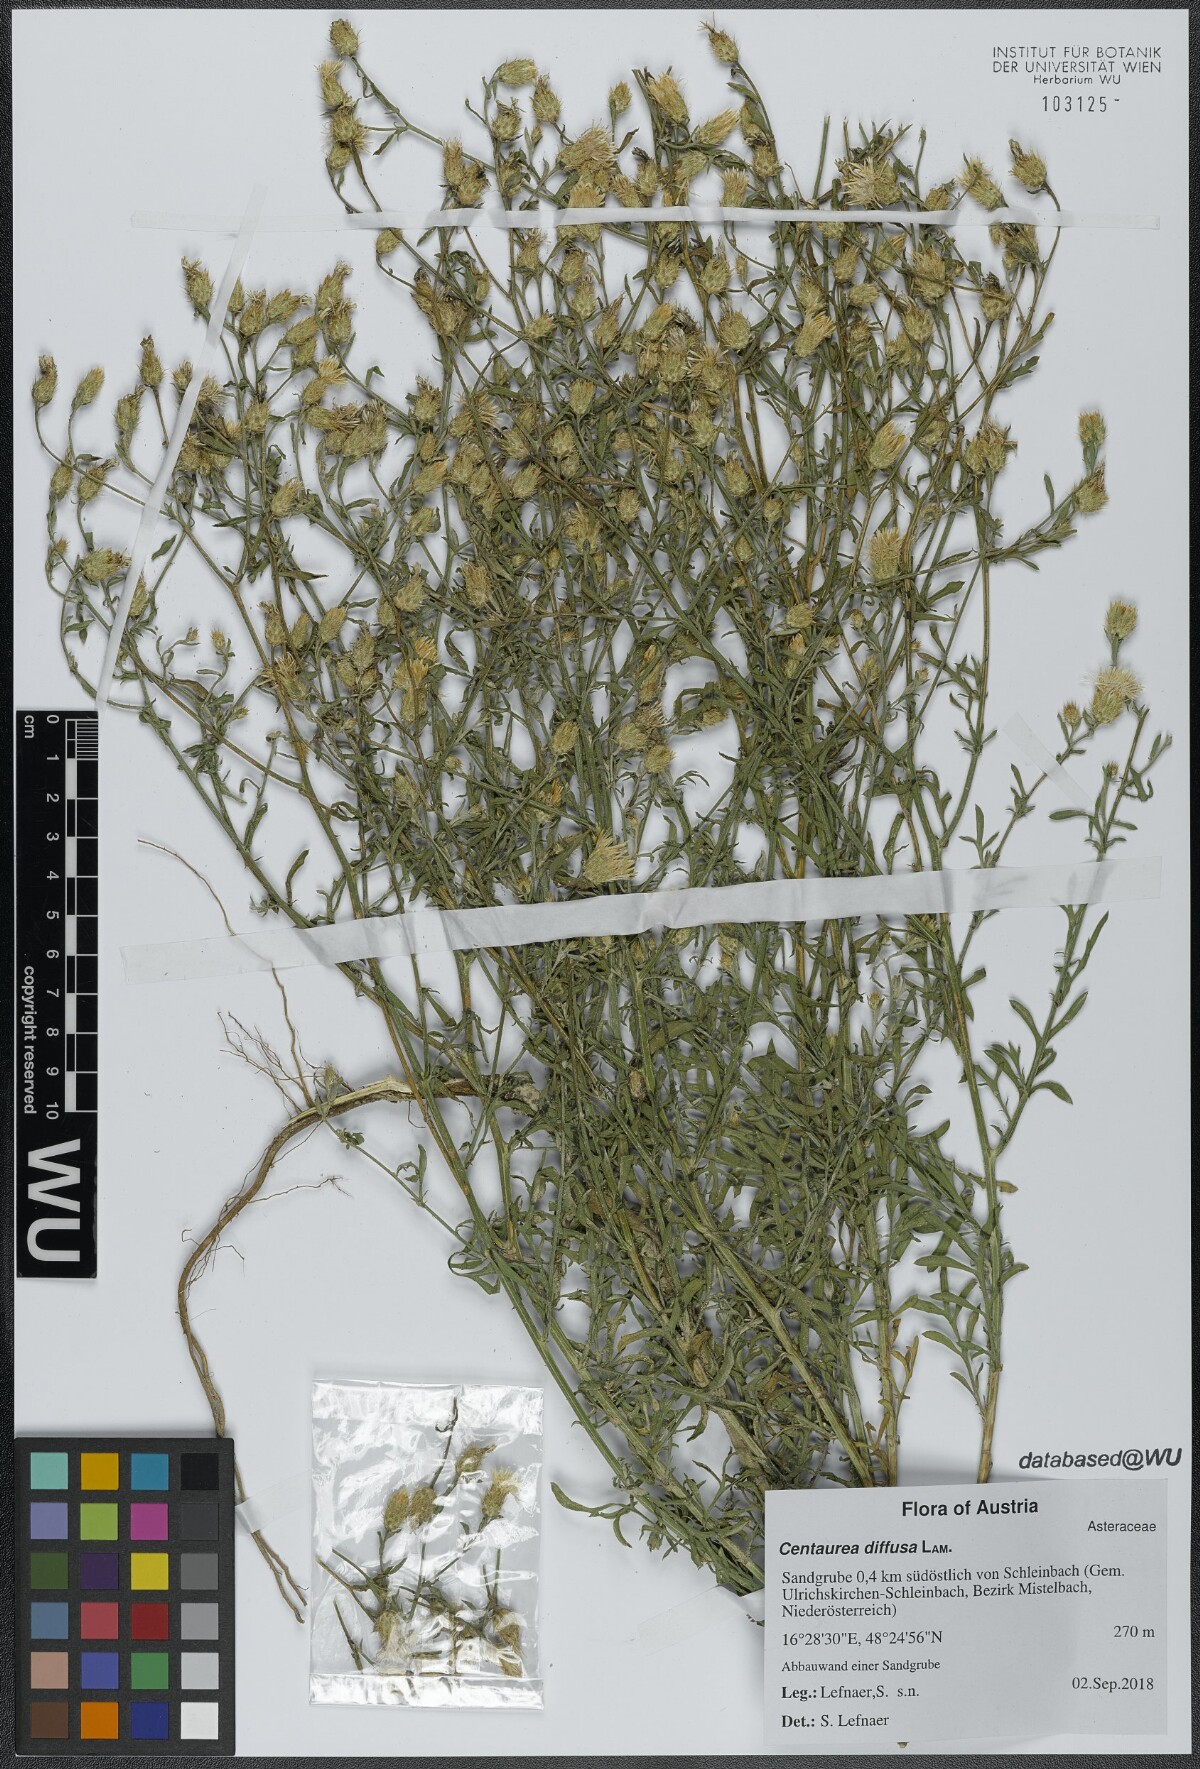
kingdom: Plantae
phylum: Tracheophyta
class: Magnoliopsida
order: Asterales
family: Asteraceae
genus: Centaurea
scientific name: Centaurea diffusa
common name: Diffuse knapweed
